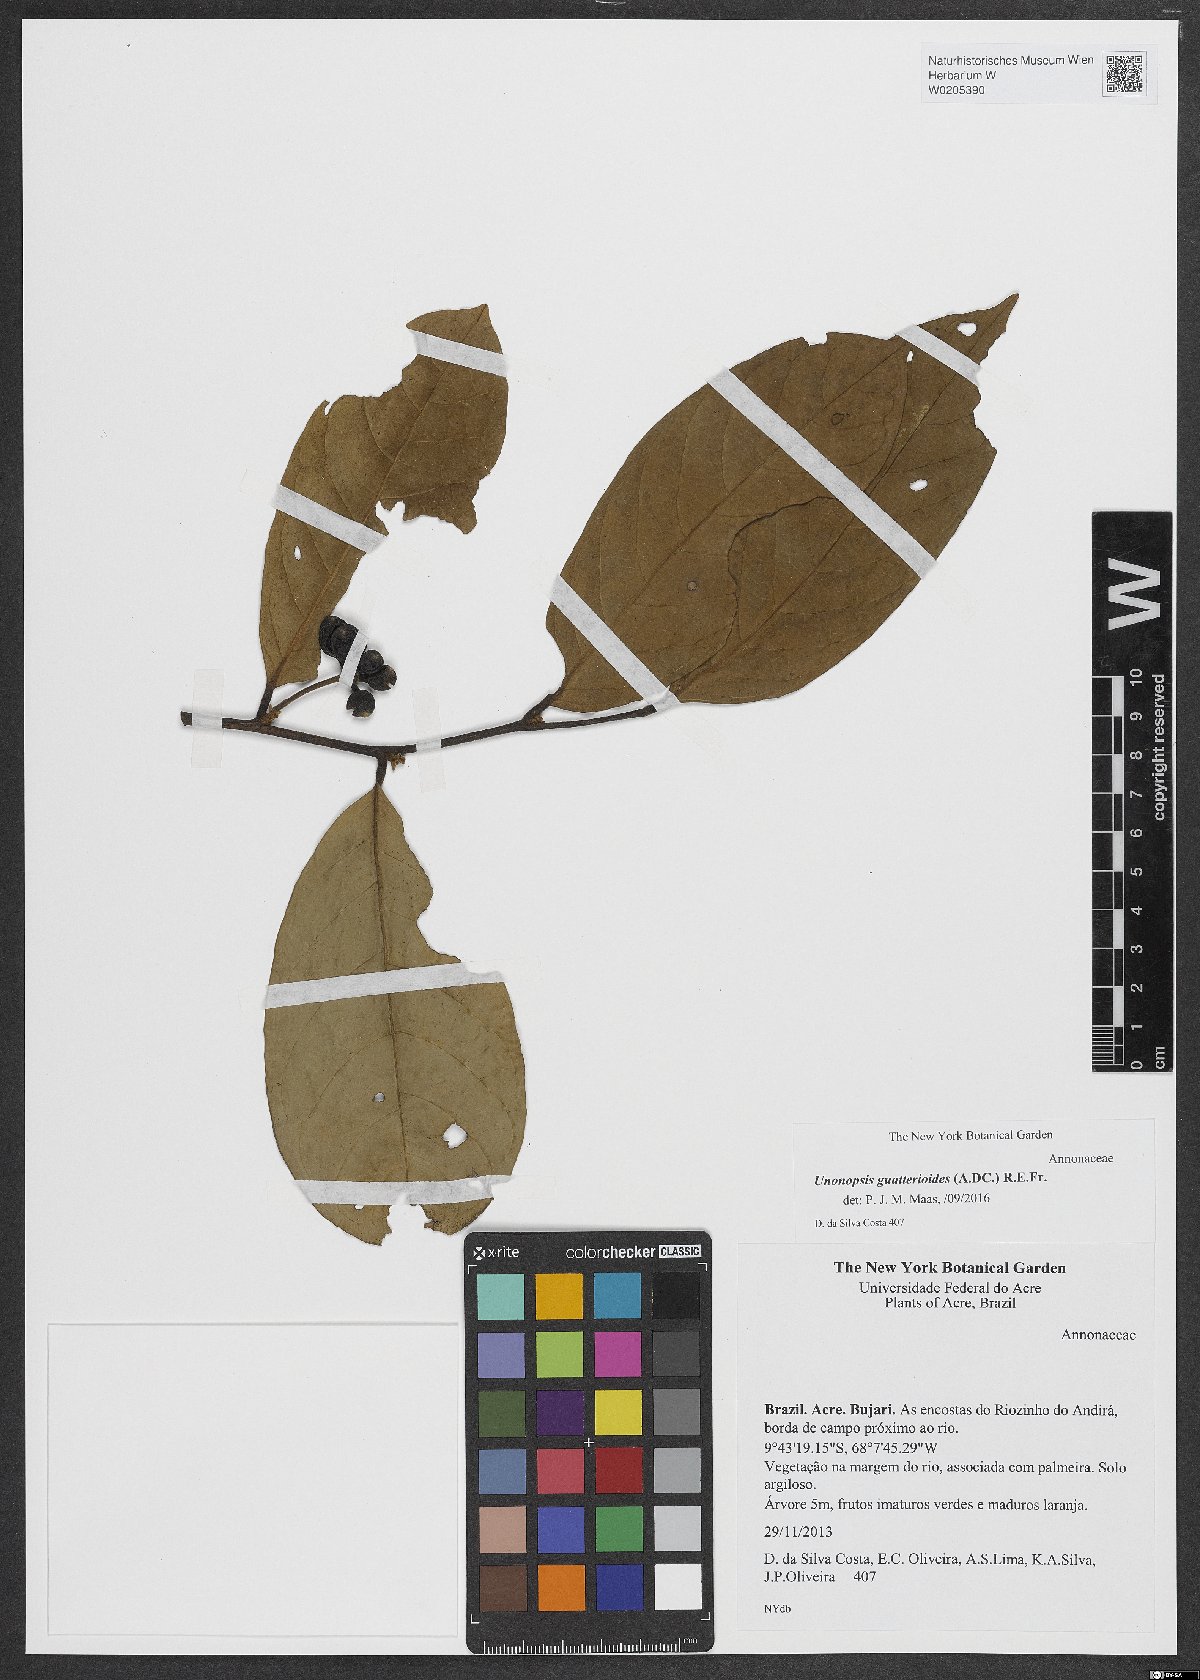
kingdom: Plantae
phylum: Tracheophyta
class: Magnoliopsida
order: Magnoliales
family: Annonaceae
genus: Unonopsis
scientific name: Unonopsis guatterioides
